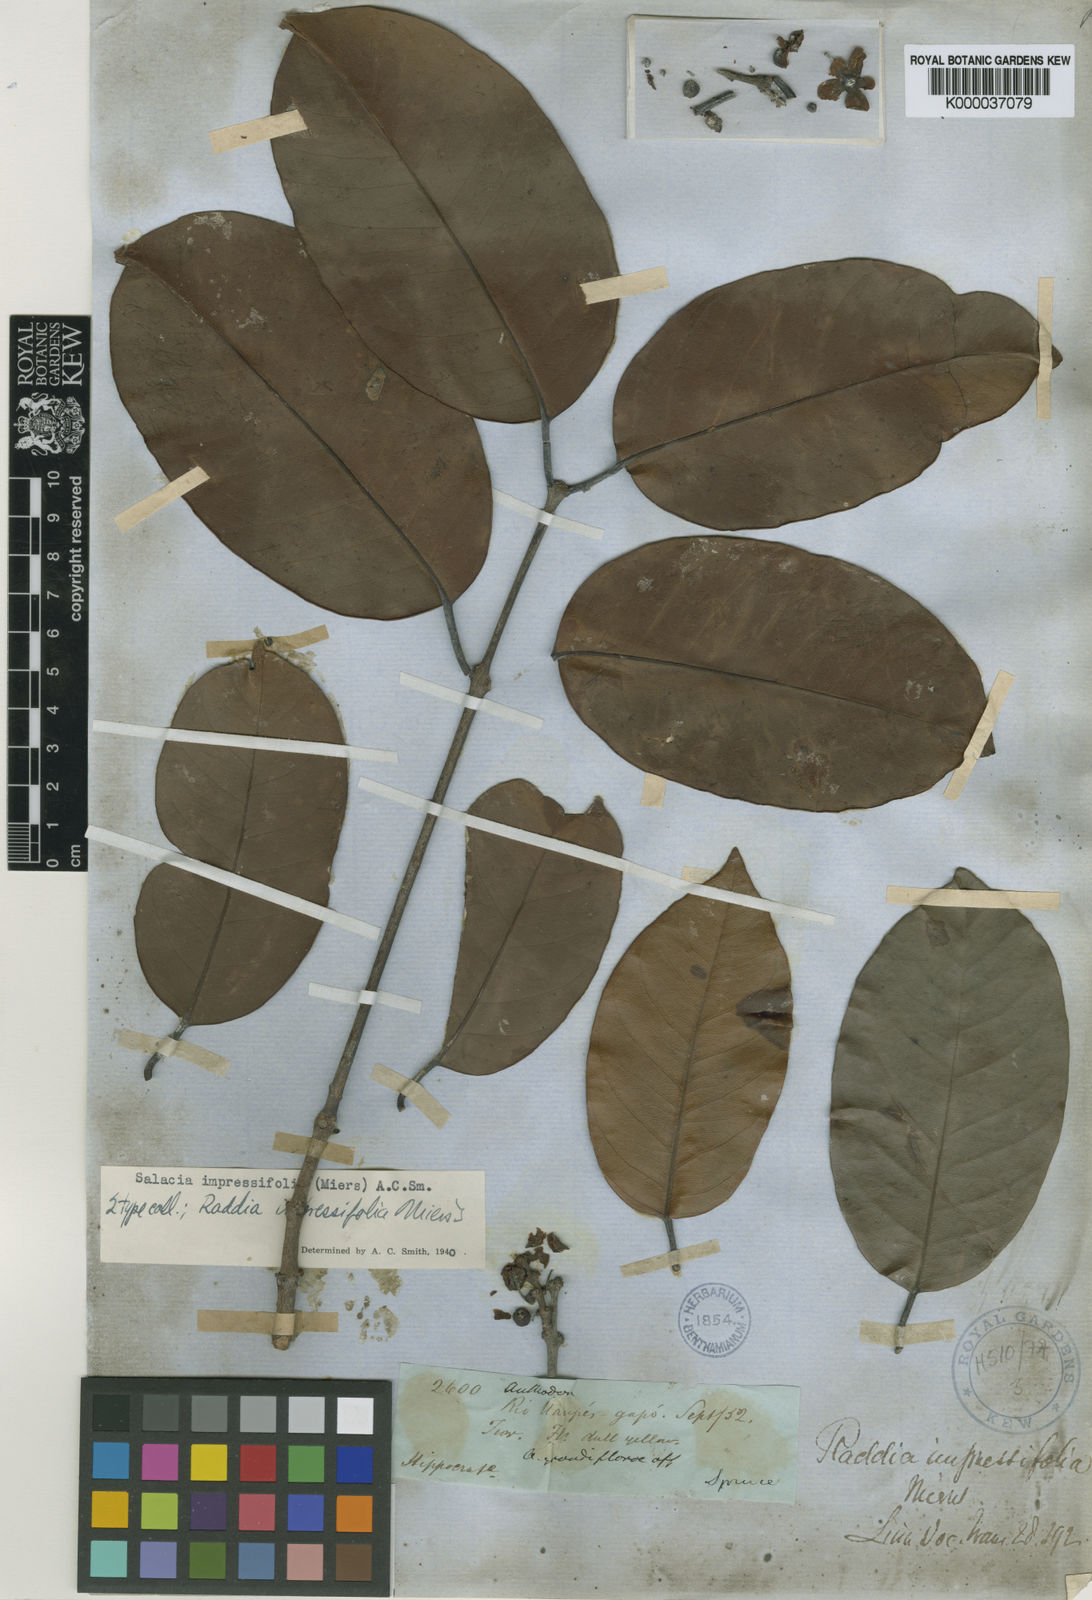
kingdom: Plantae
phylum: Tracheophyta
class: Magnoliopsida
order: Celastrales
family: Celastraceae
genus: Salacia
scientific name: Salacia impressifolia
